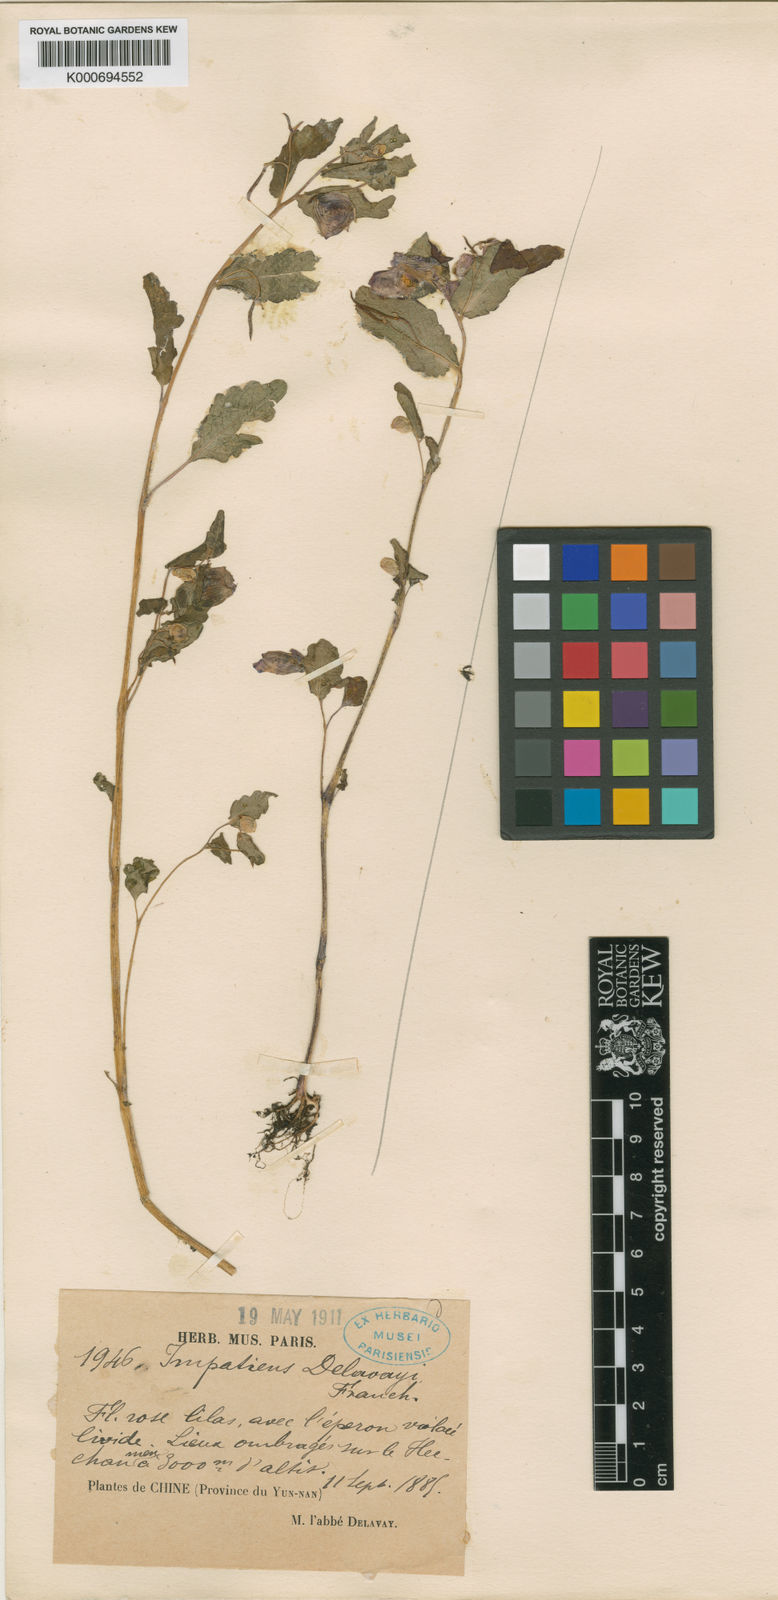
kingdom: Plantae
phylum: Tracheophyta
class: Magnoliopsida
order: Ericales
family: Balsaminaceae
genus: Impatiens
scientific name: Impatiens delavayi
